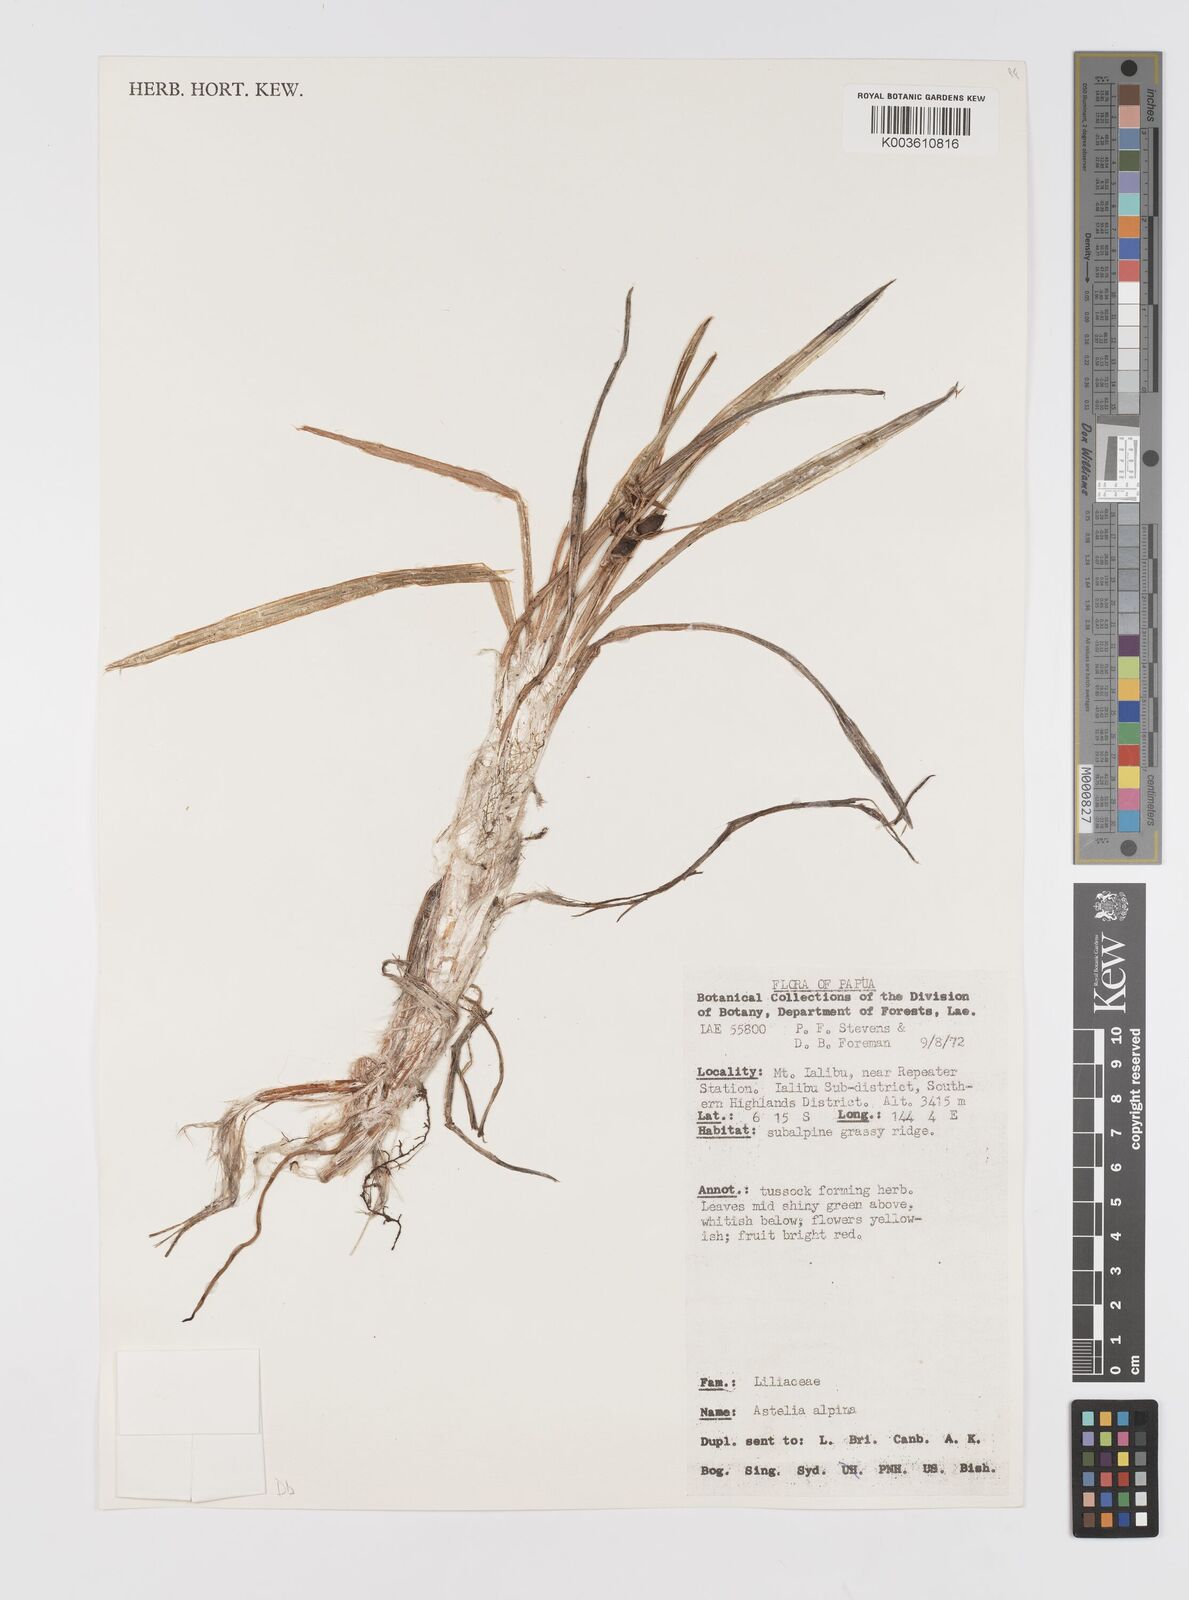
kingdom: Plantae
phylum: Tracheophyta
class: Liliopsida
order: Asparagales
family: Asteliaceae
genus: Astelia
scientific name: Astelia papuana
